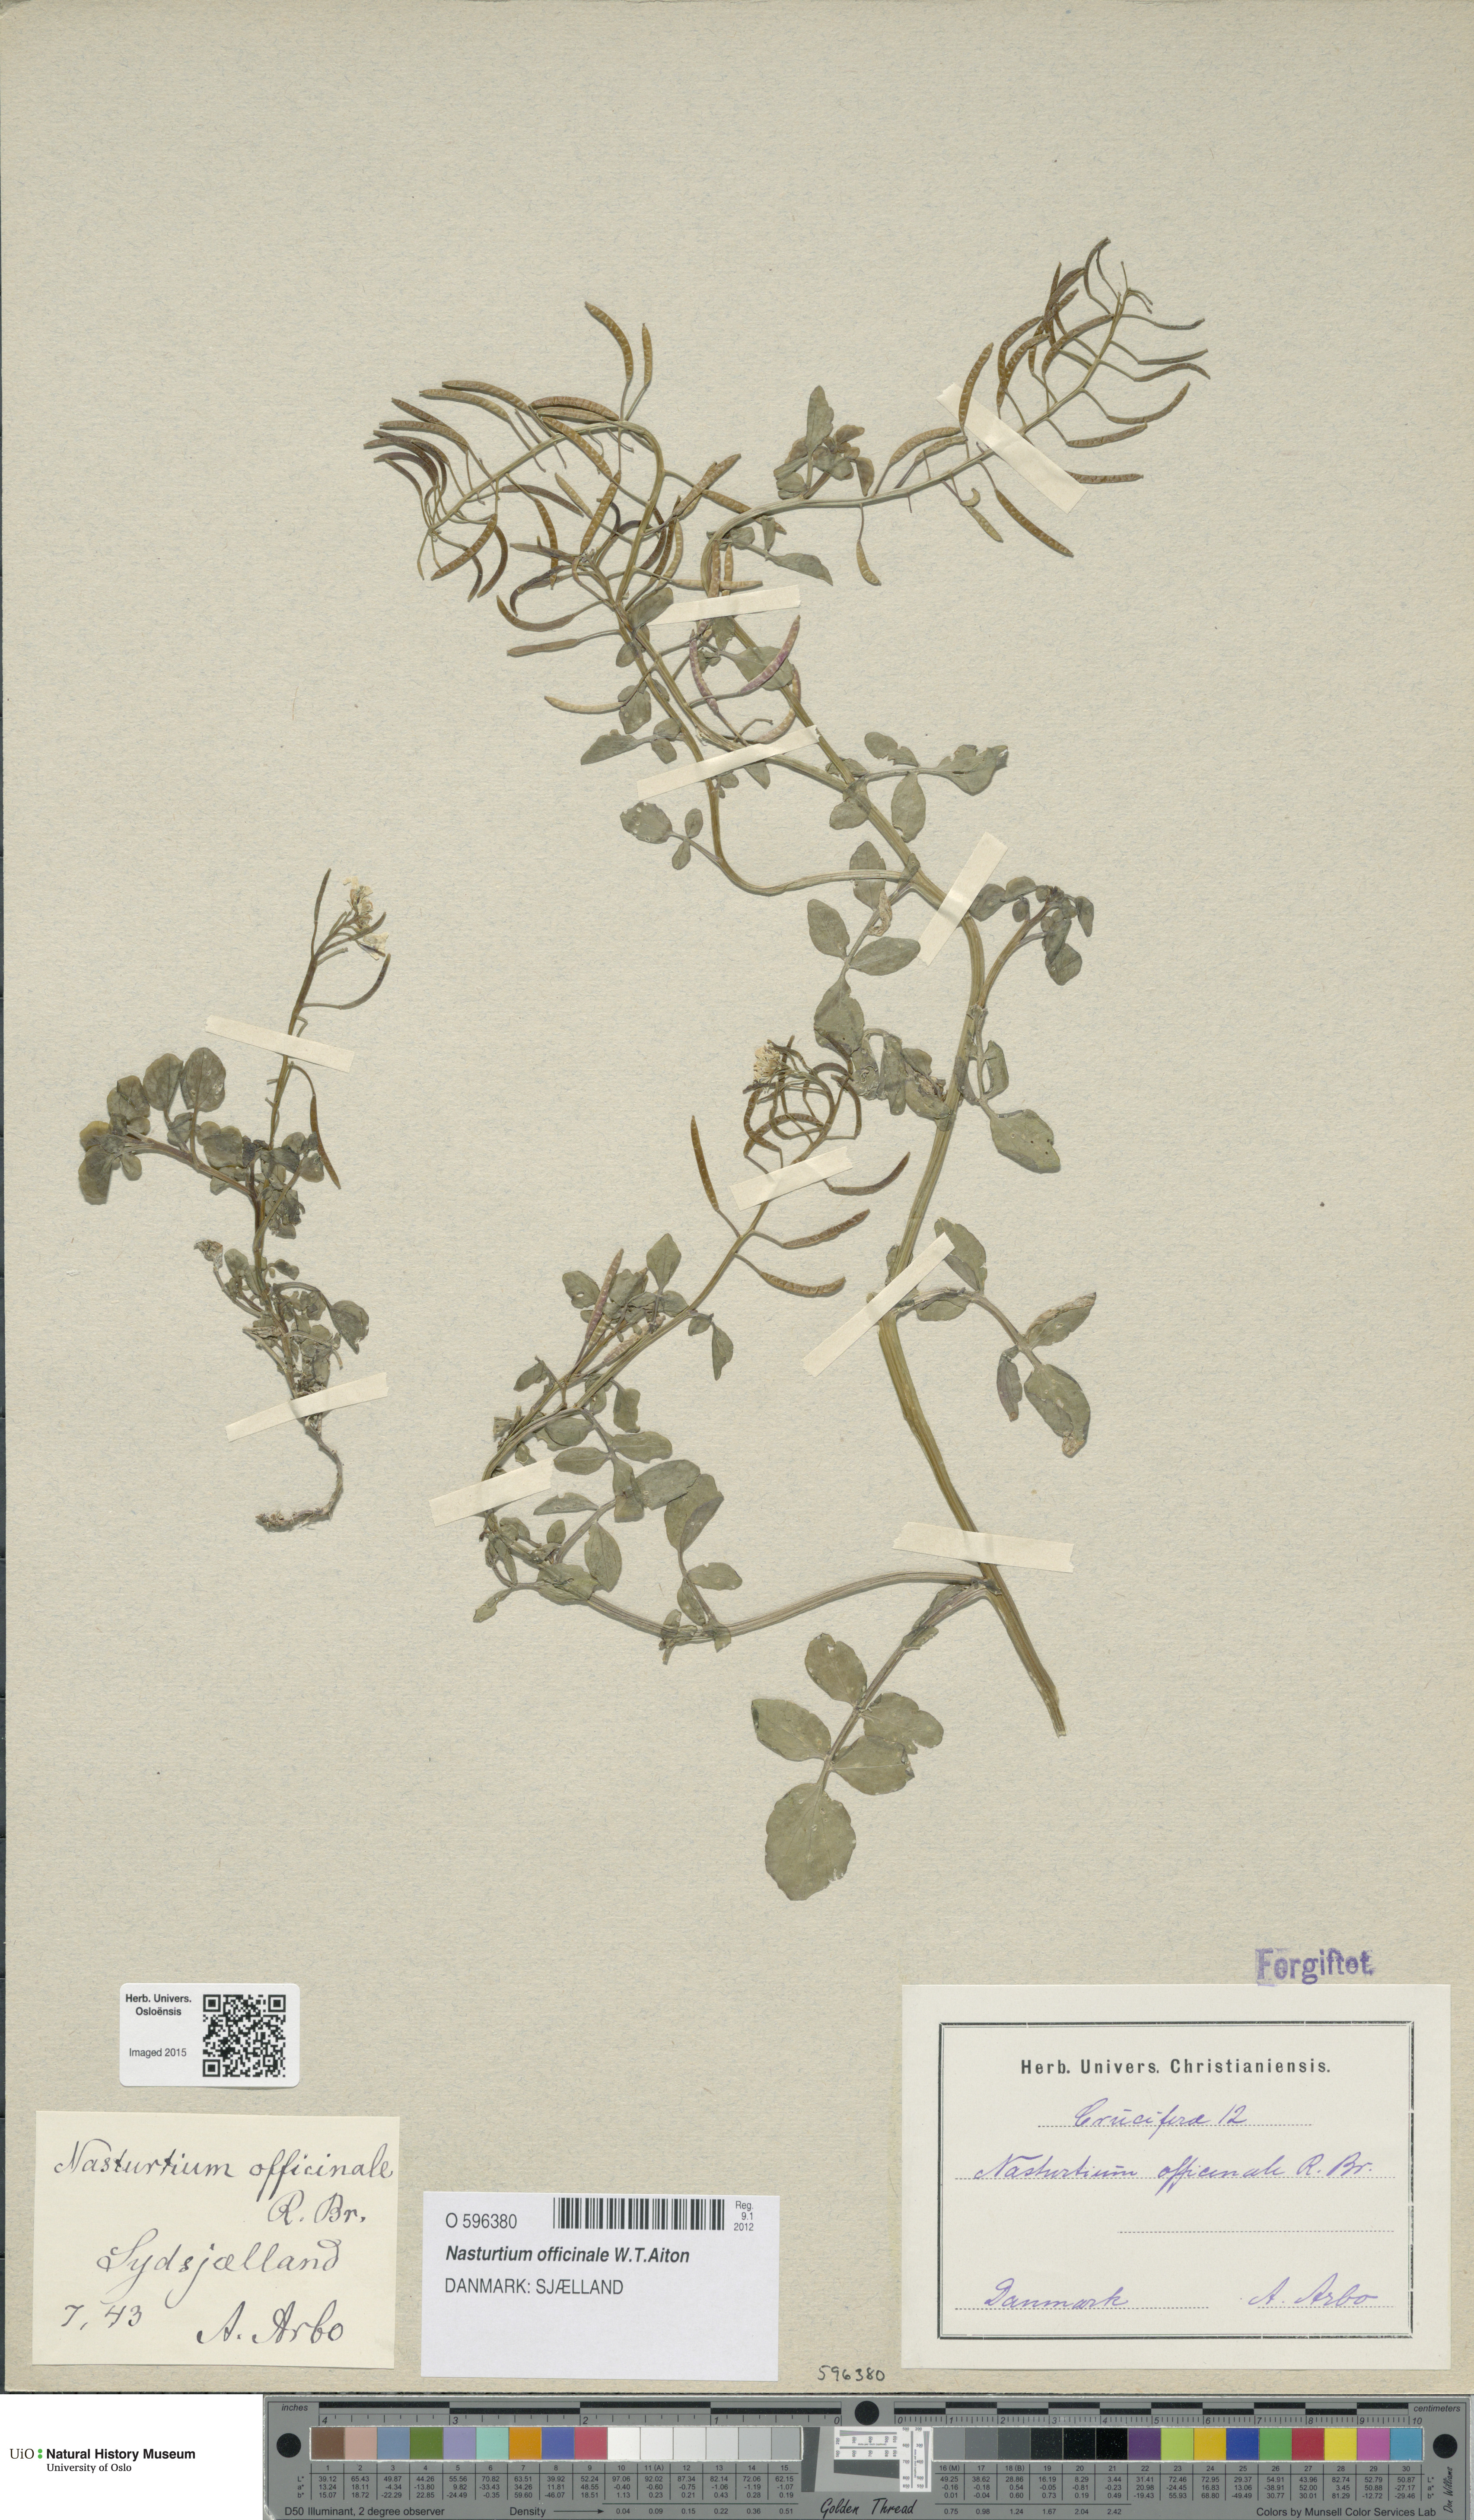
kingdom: Plantae
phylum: Tracheophyta
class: Magnoliopsida
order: Brassicales
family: Brassicaceae
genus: Nasturtium
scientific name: Nasturtium officinale
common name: Watercress
